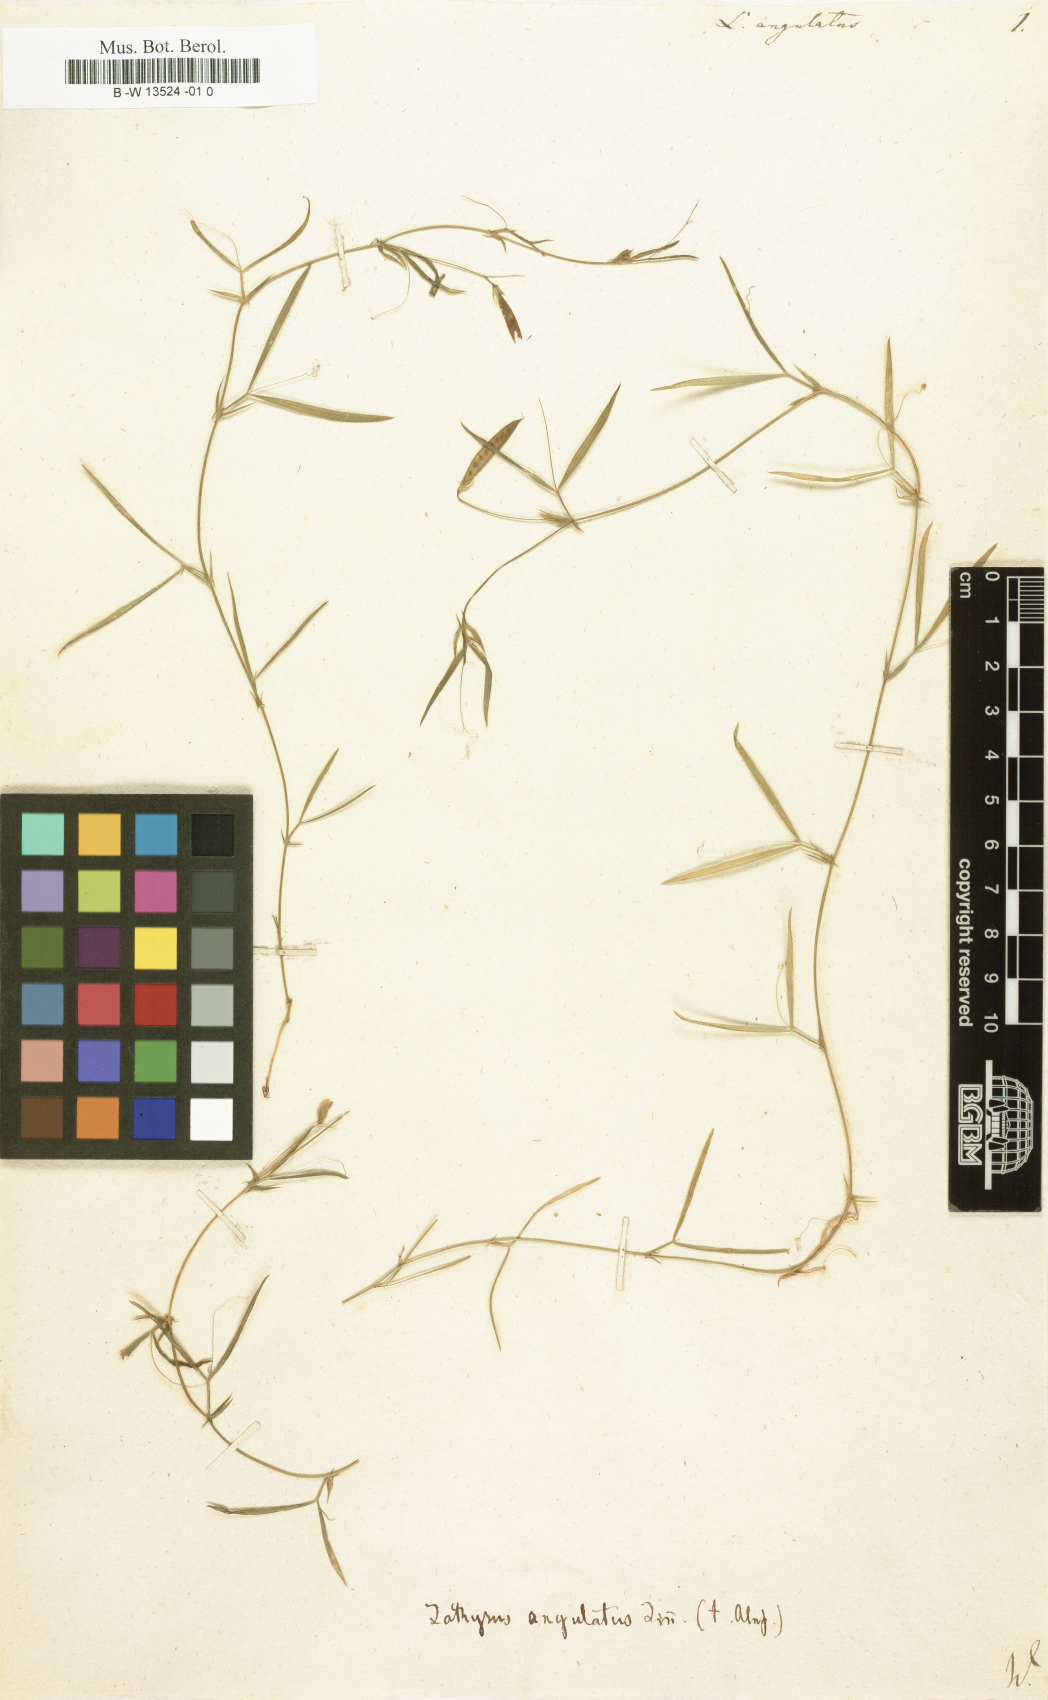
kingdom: Plantae
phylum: Tracheophyta
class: Magnoliopsida
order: Fabales
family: Fabaceae
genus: Lathyrus
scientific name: Lathyrus angulatus
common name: Angular pea
